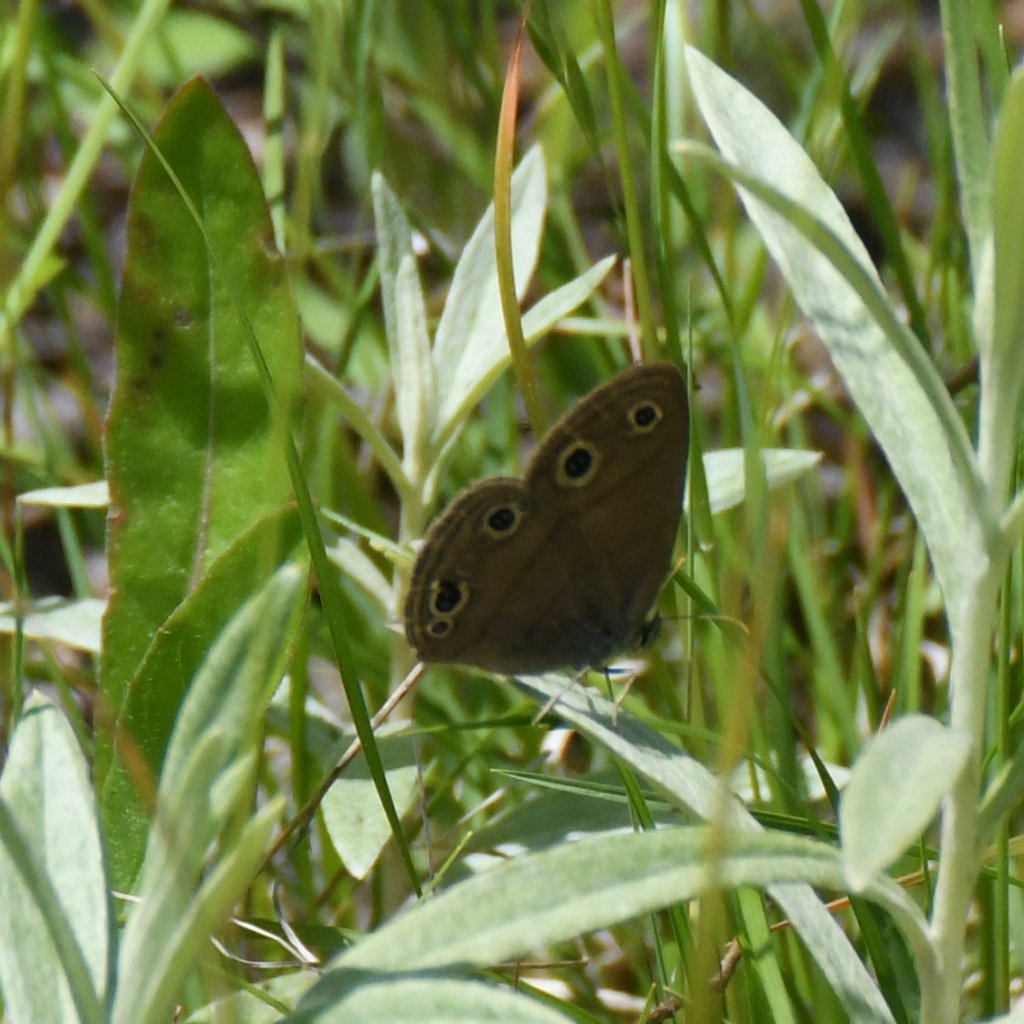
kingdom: Animalia
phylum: Arthropoda
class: Insecta
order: Lepidoptera
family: Nymphalidae
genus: Euptychia
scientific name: Euptychia cymela
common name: Little Wood Satyr
